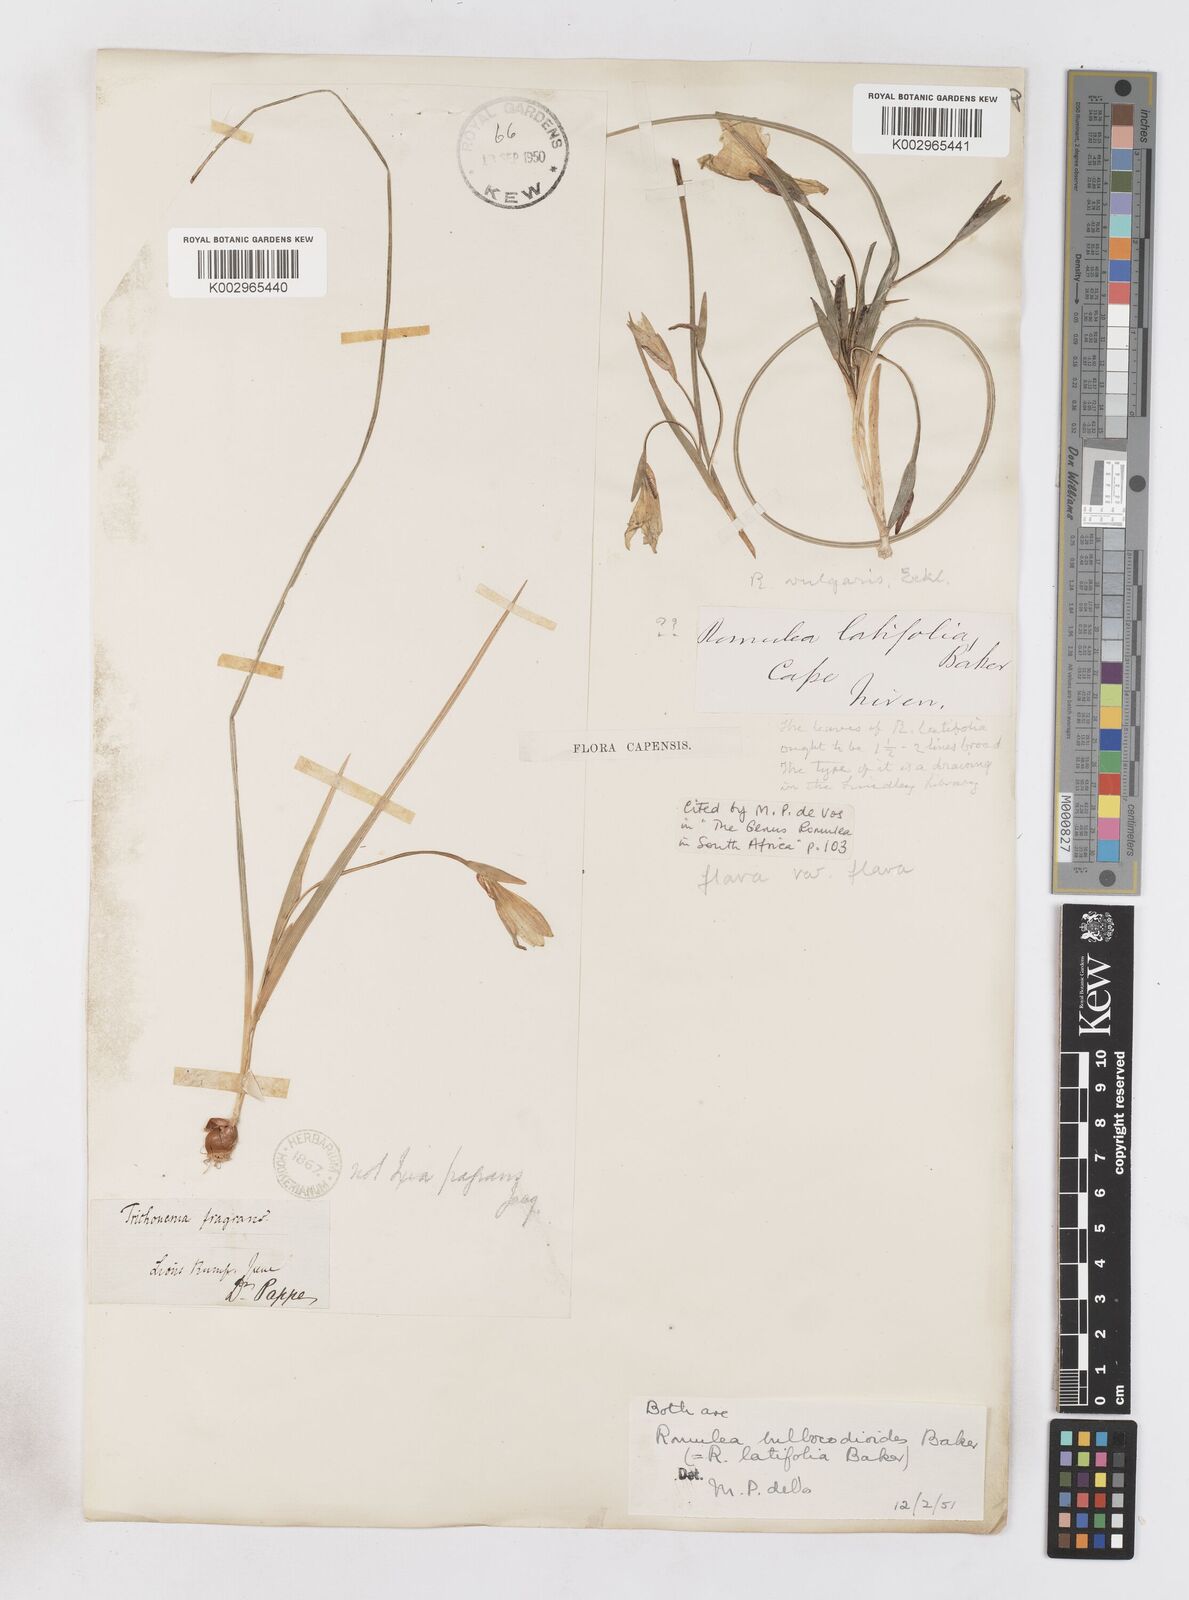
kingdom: Plantae
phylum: Tracheophyta
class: Liliopsida
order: Asparagales
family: Iridaceae
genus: Romulea
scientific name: Romulea flava
